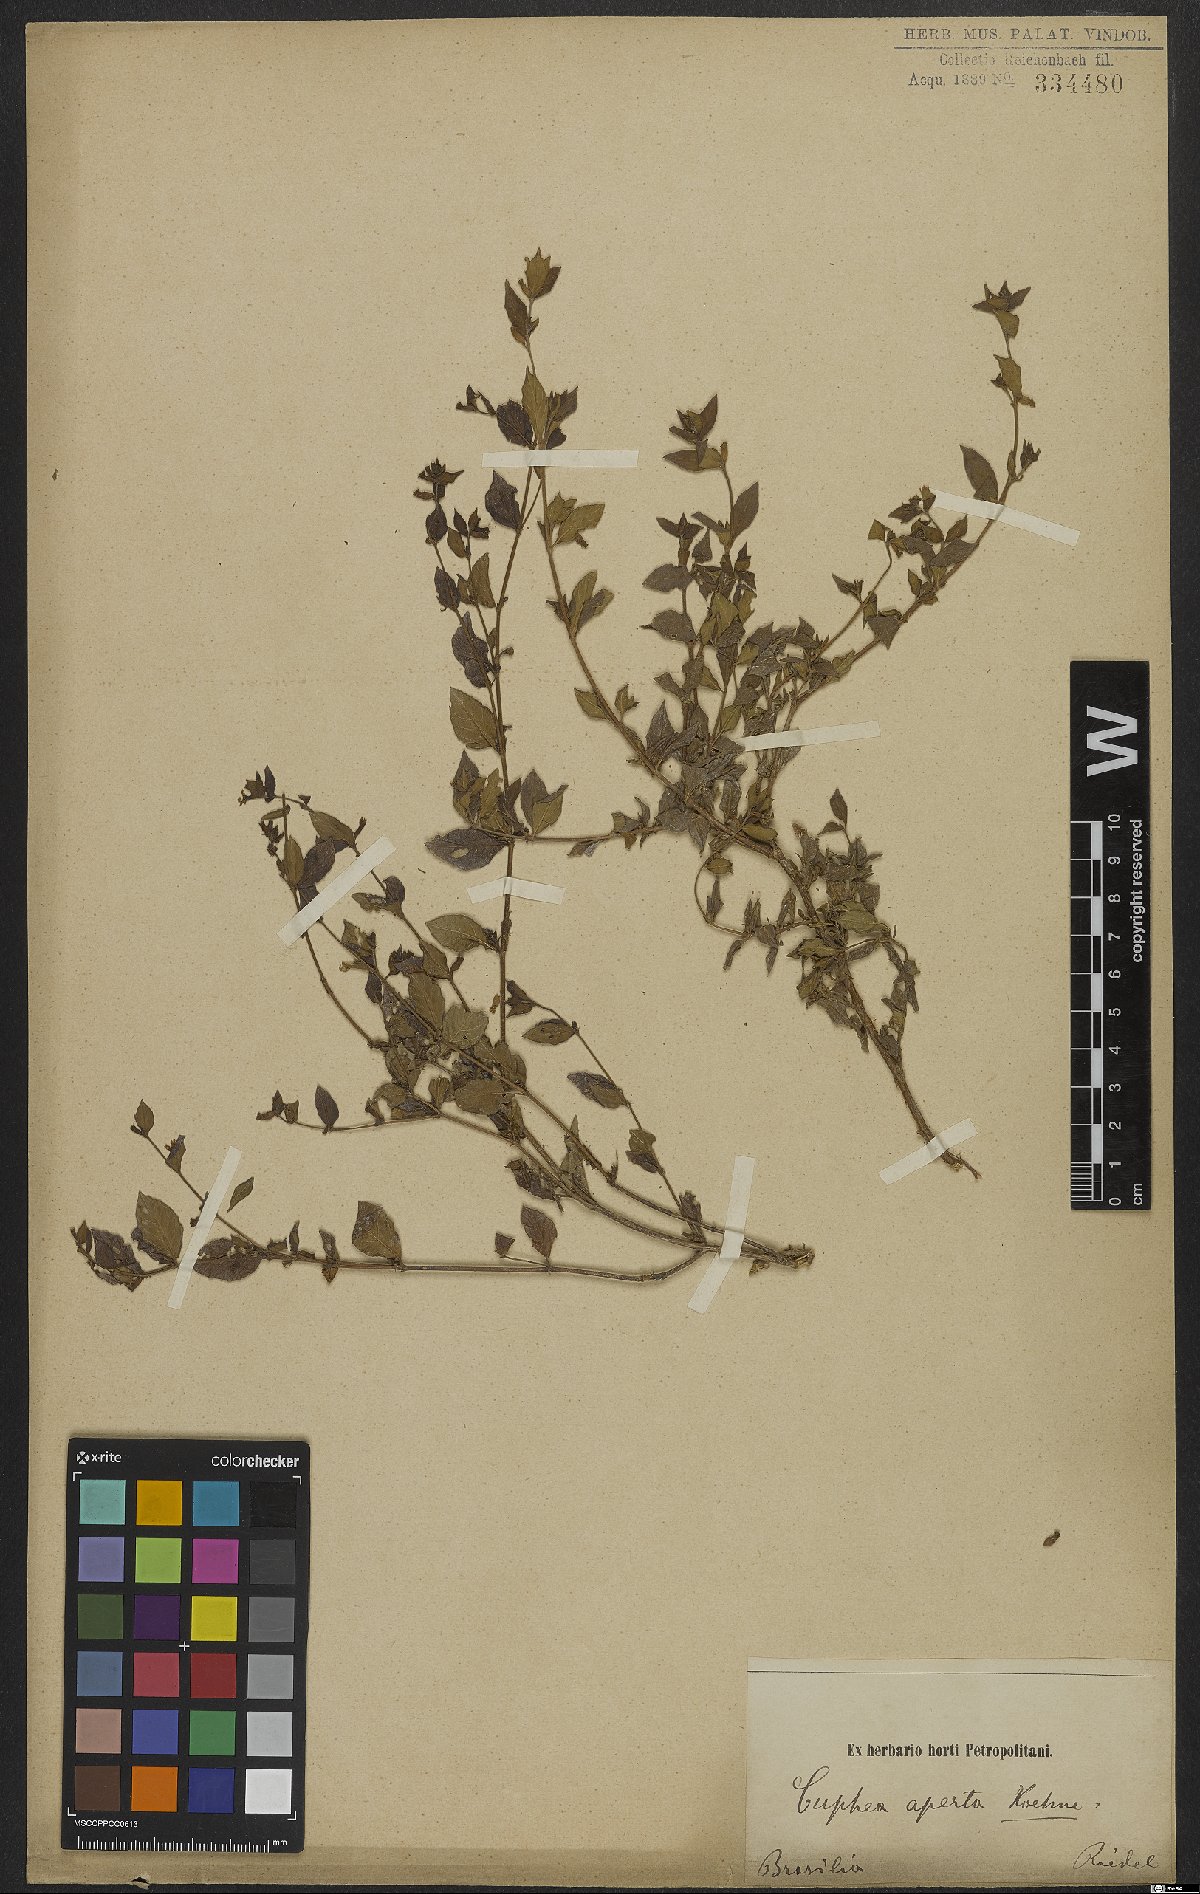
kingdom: Plantae
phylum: Tracheophyta
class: Magnoliopsida
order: Myrtales
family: Lythraceae
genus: Cuphea
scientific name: Cuphea aperta
